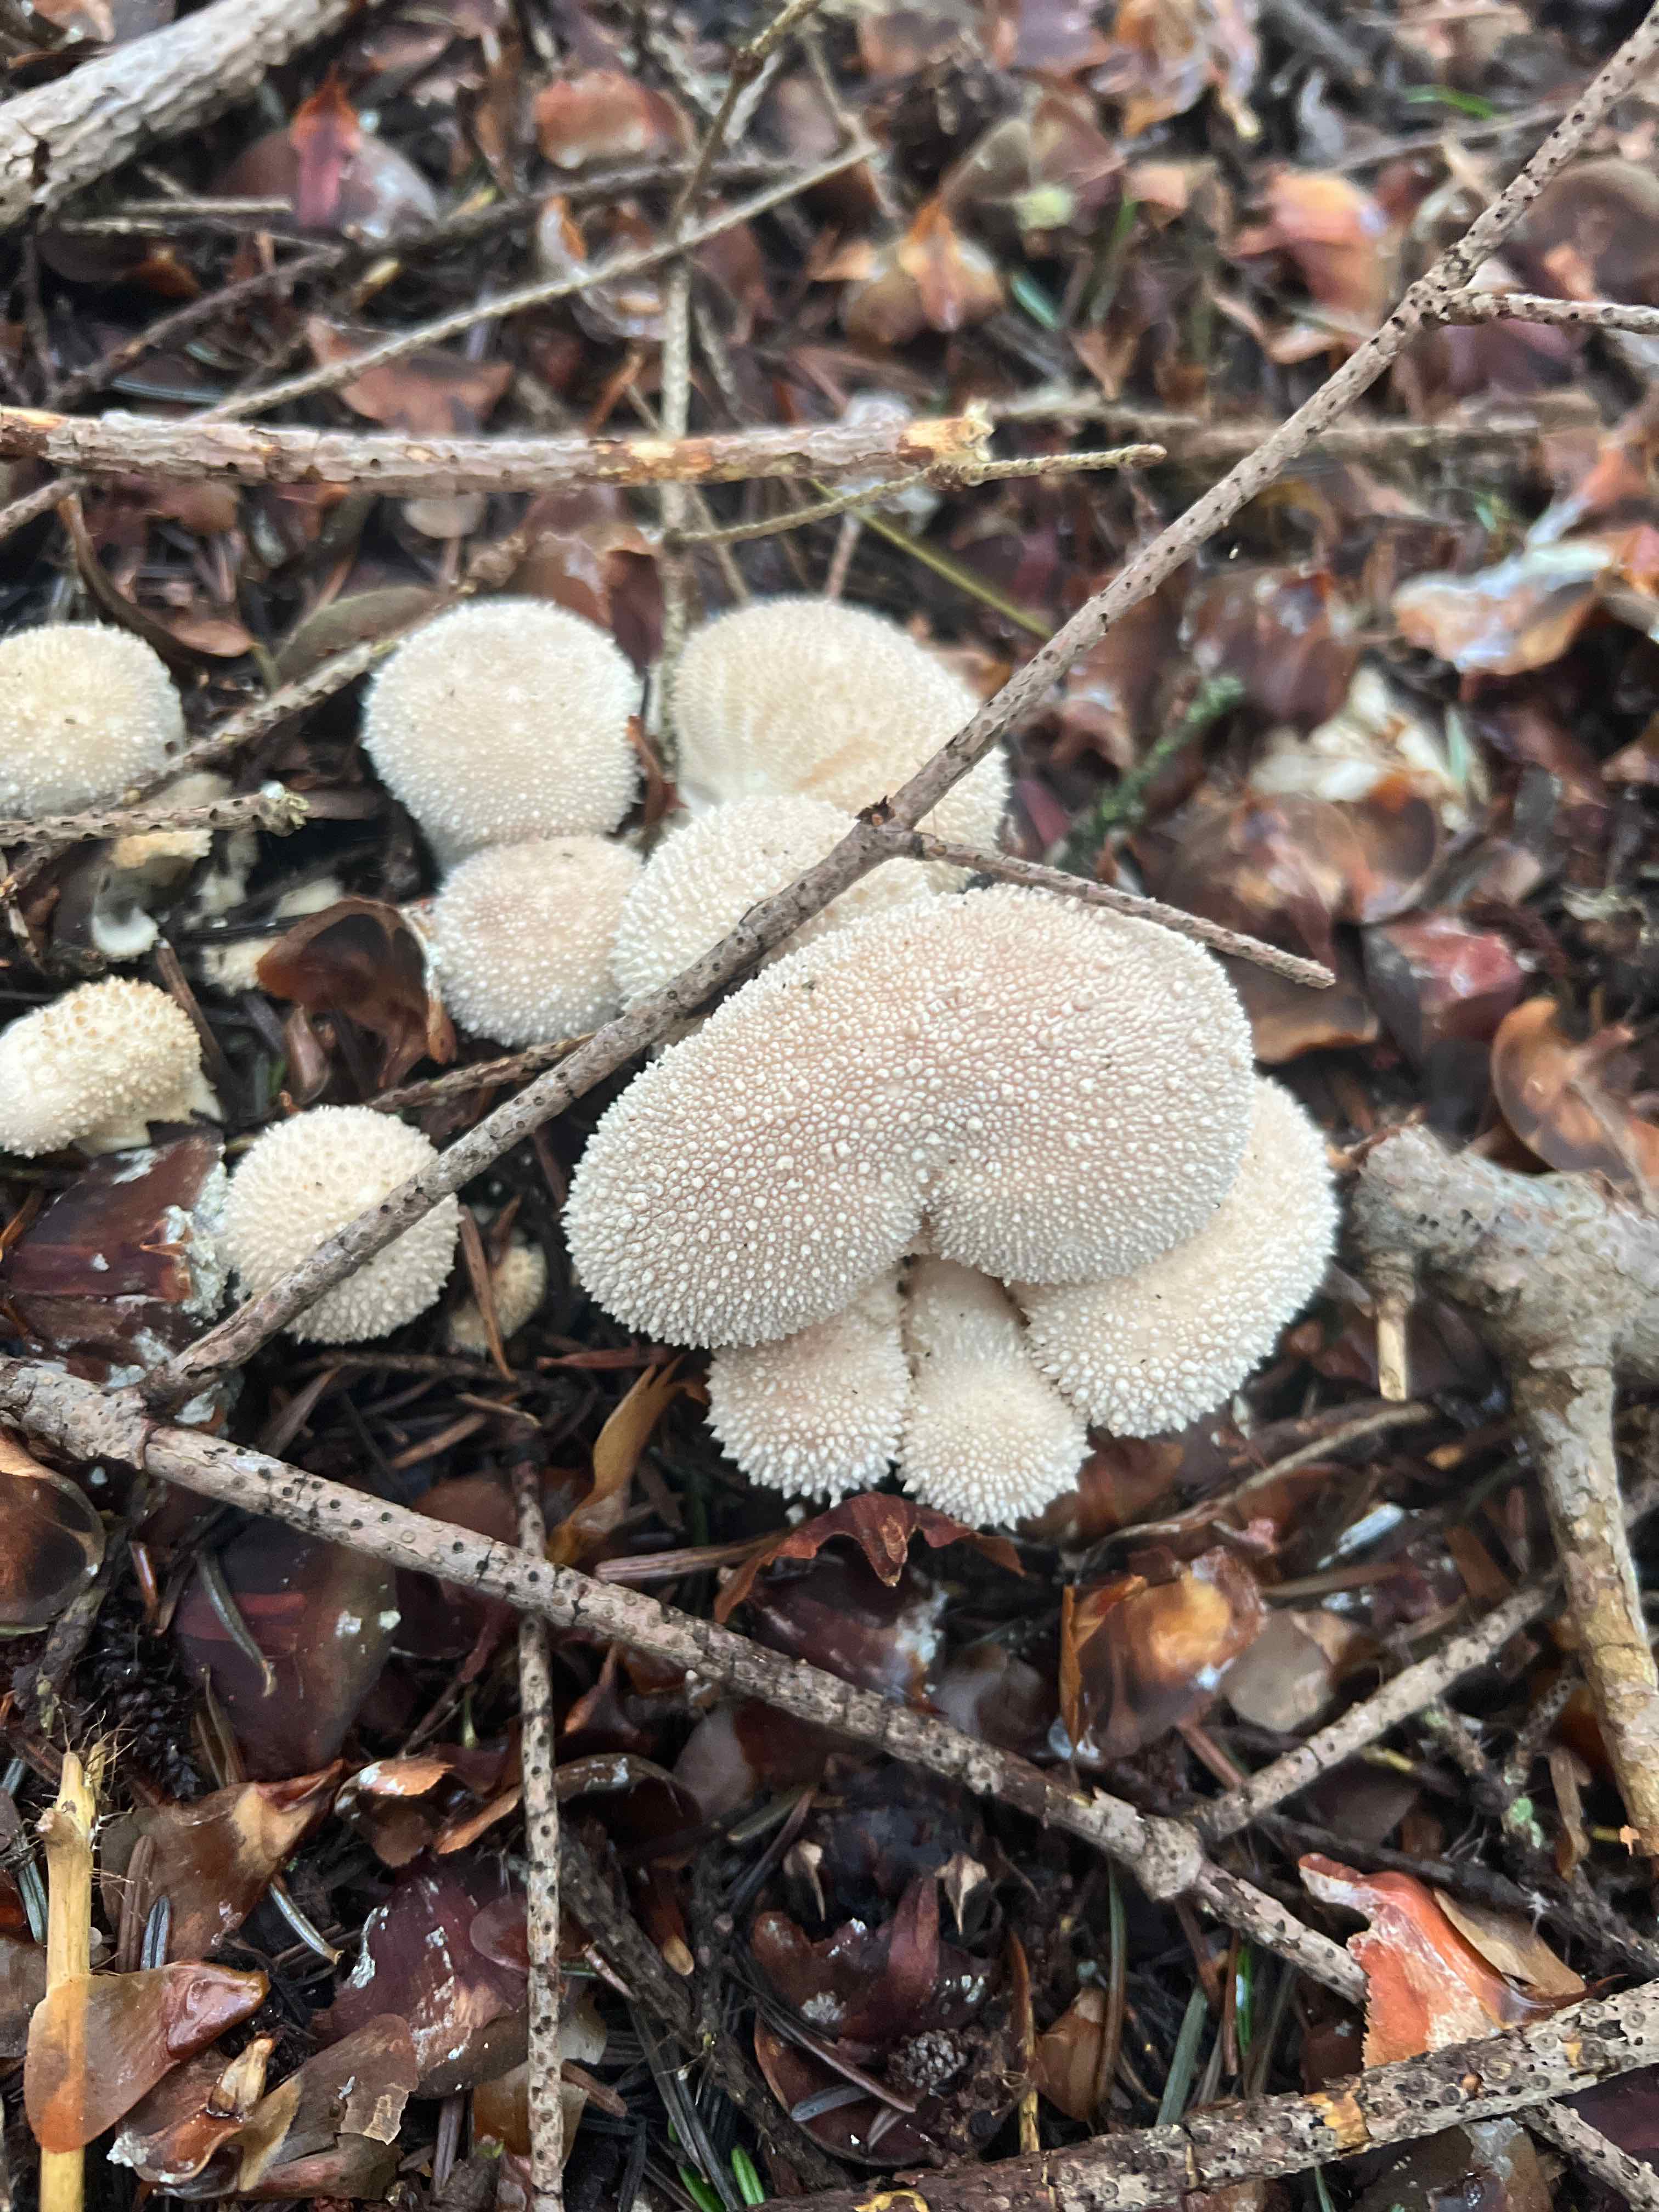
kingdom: Fungi
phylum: Basidiomycota
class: Agaricomycetes
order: Agaricales
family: Lycoperdaceae
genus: Lycoperdon
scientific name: Lycoperdon perlatum
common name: krystal-støvbold
